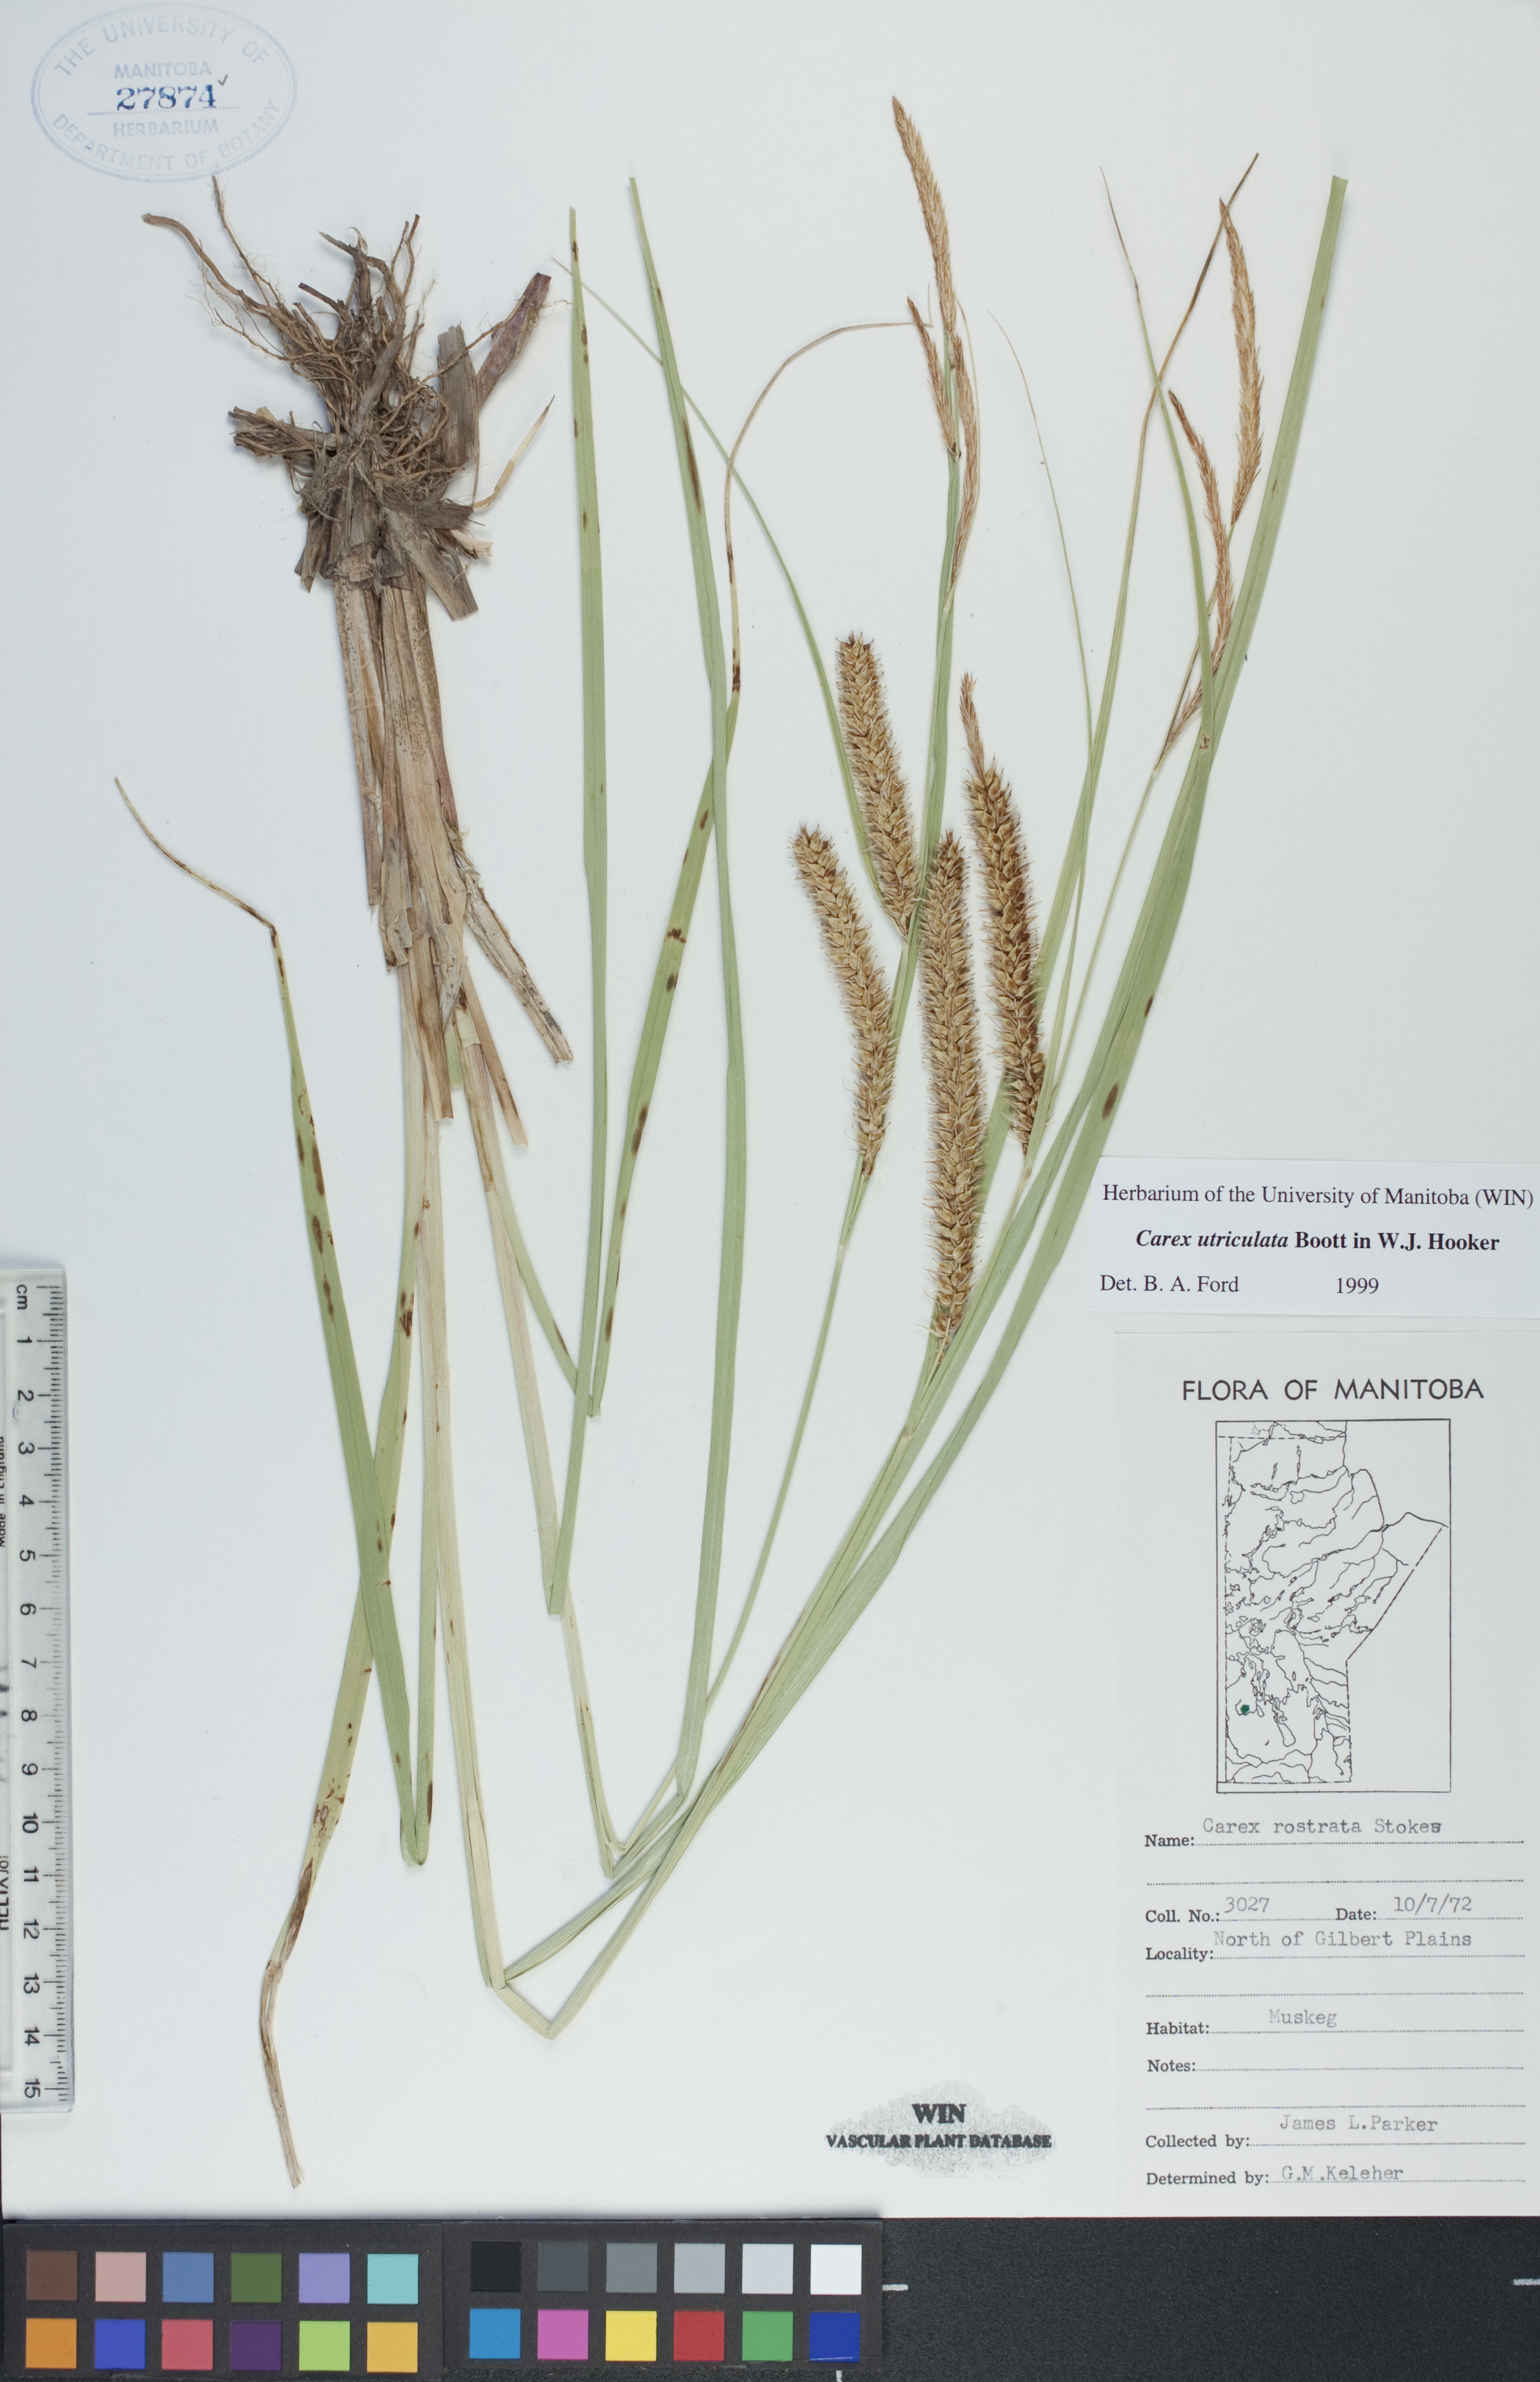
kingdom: Plantae
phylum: Tracheophyta
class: Liliopsida
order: Poales
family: Cyperaceae
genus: Carex
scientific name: Carex utriculata
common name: Beaked sedge
